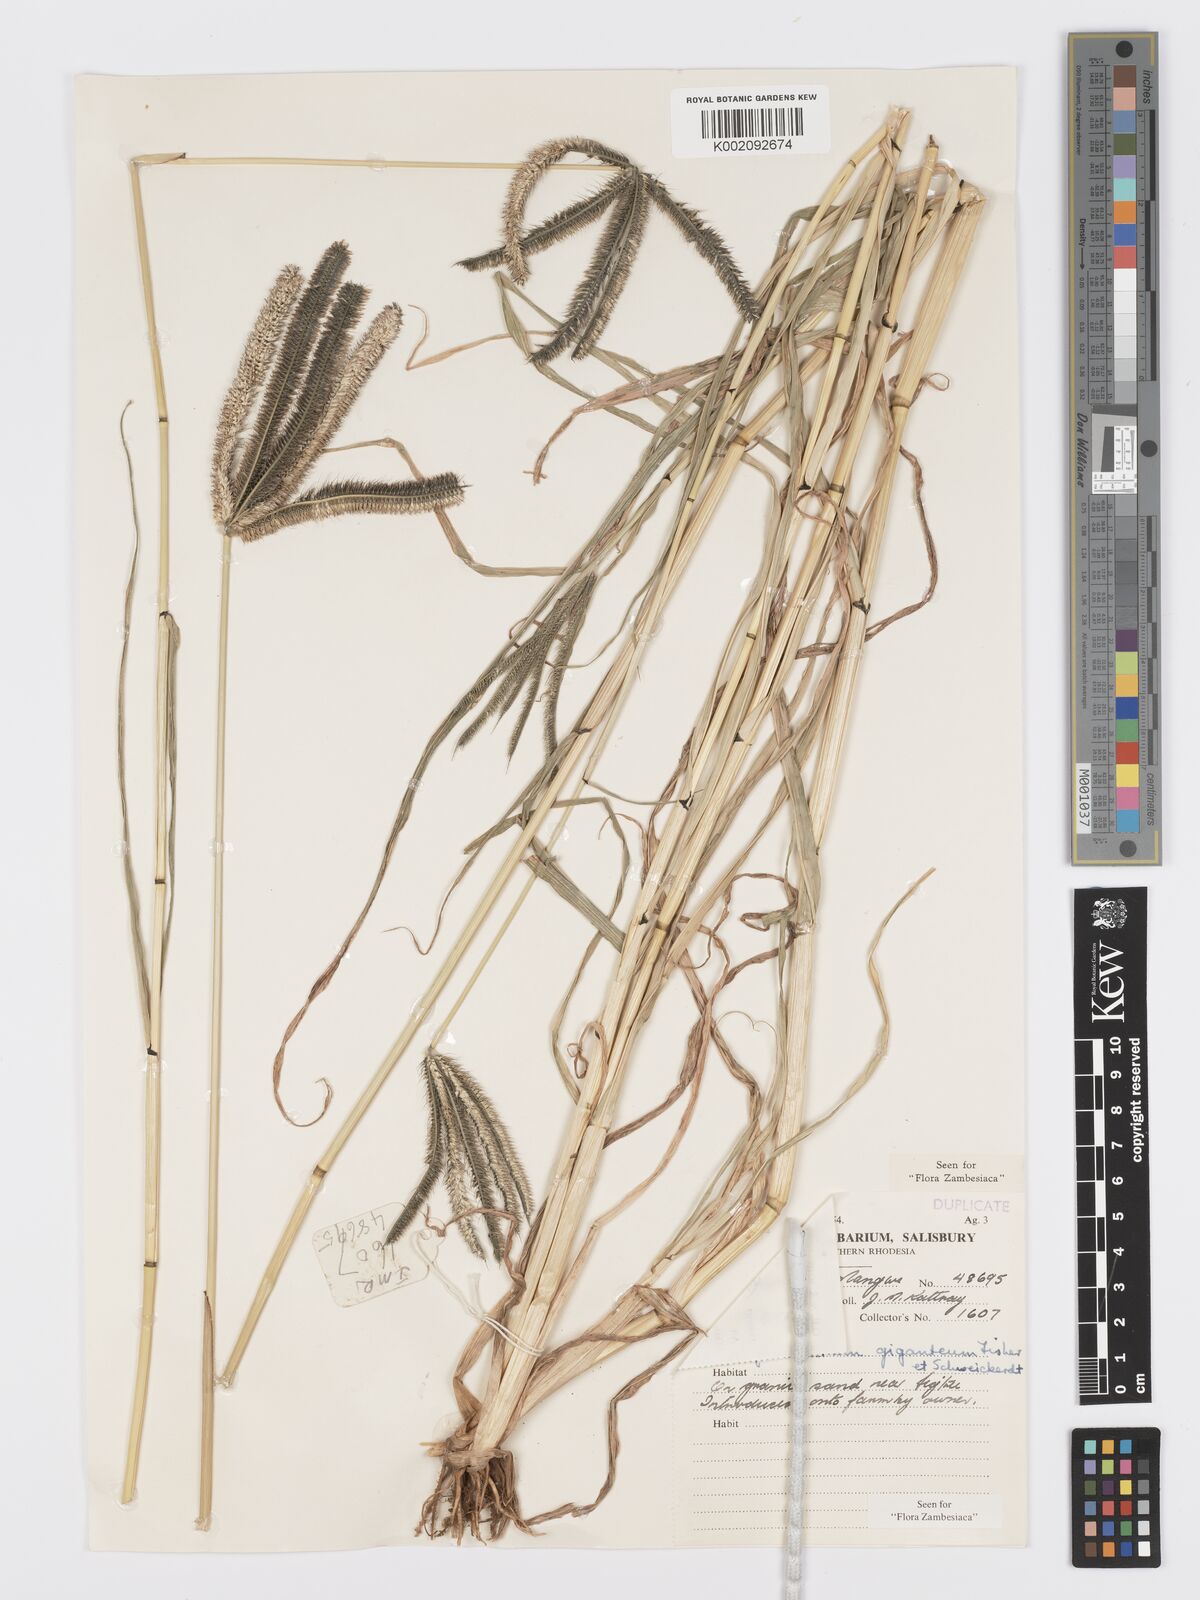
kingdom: Plantae
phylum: Tracheophyta
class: Liliopsida
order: Poales
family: Poaceae
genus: Dactyloctenium
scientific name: Dactyloctenium giganteum
